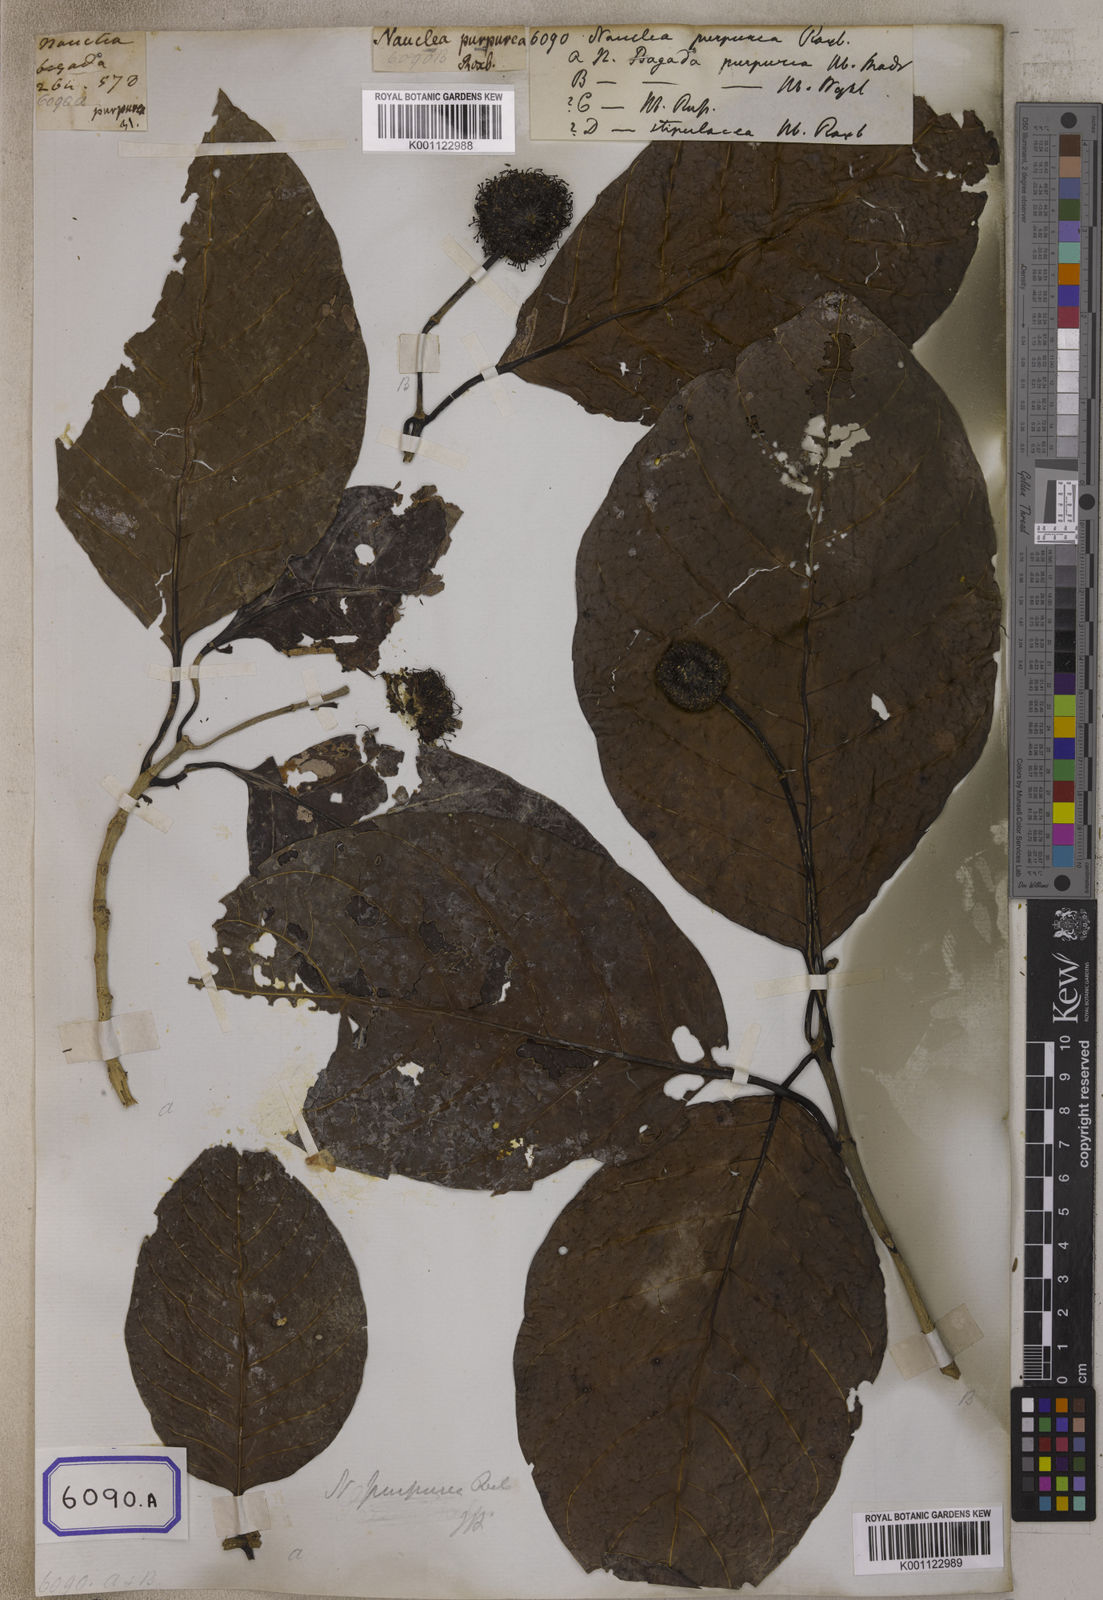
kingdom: Plantae
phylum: Tracheophyta
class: Magnoliopsida
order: Gentianales
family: Rubiaceae
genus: Nauclea
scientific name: Nauclea
